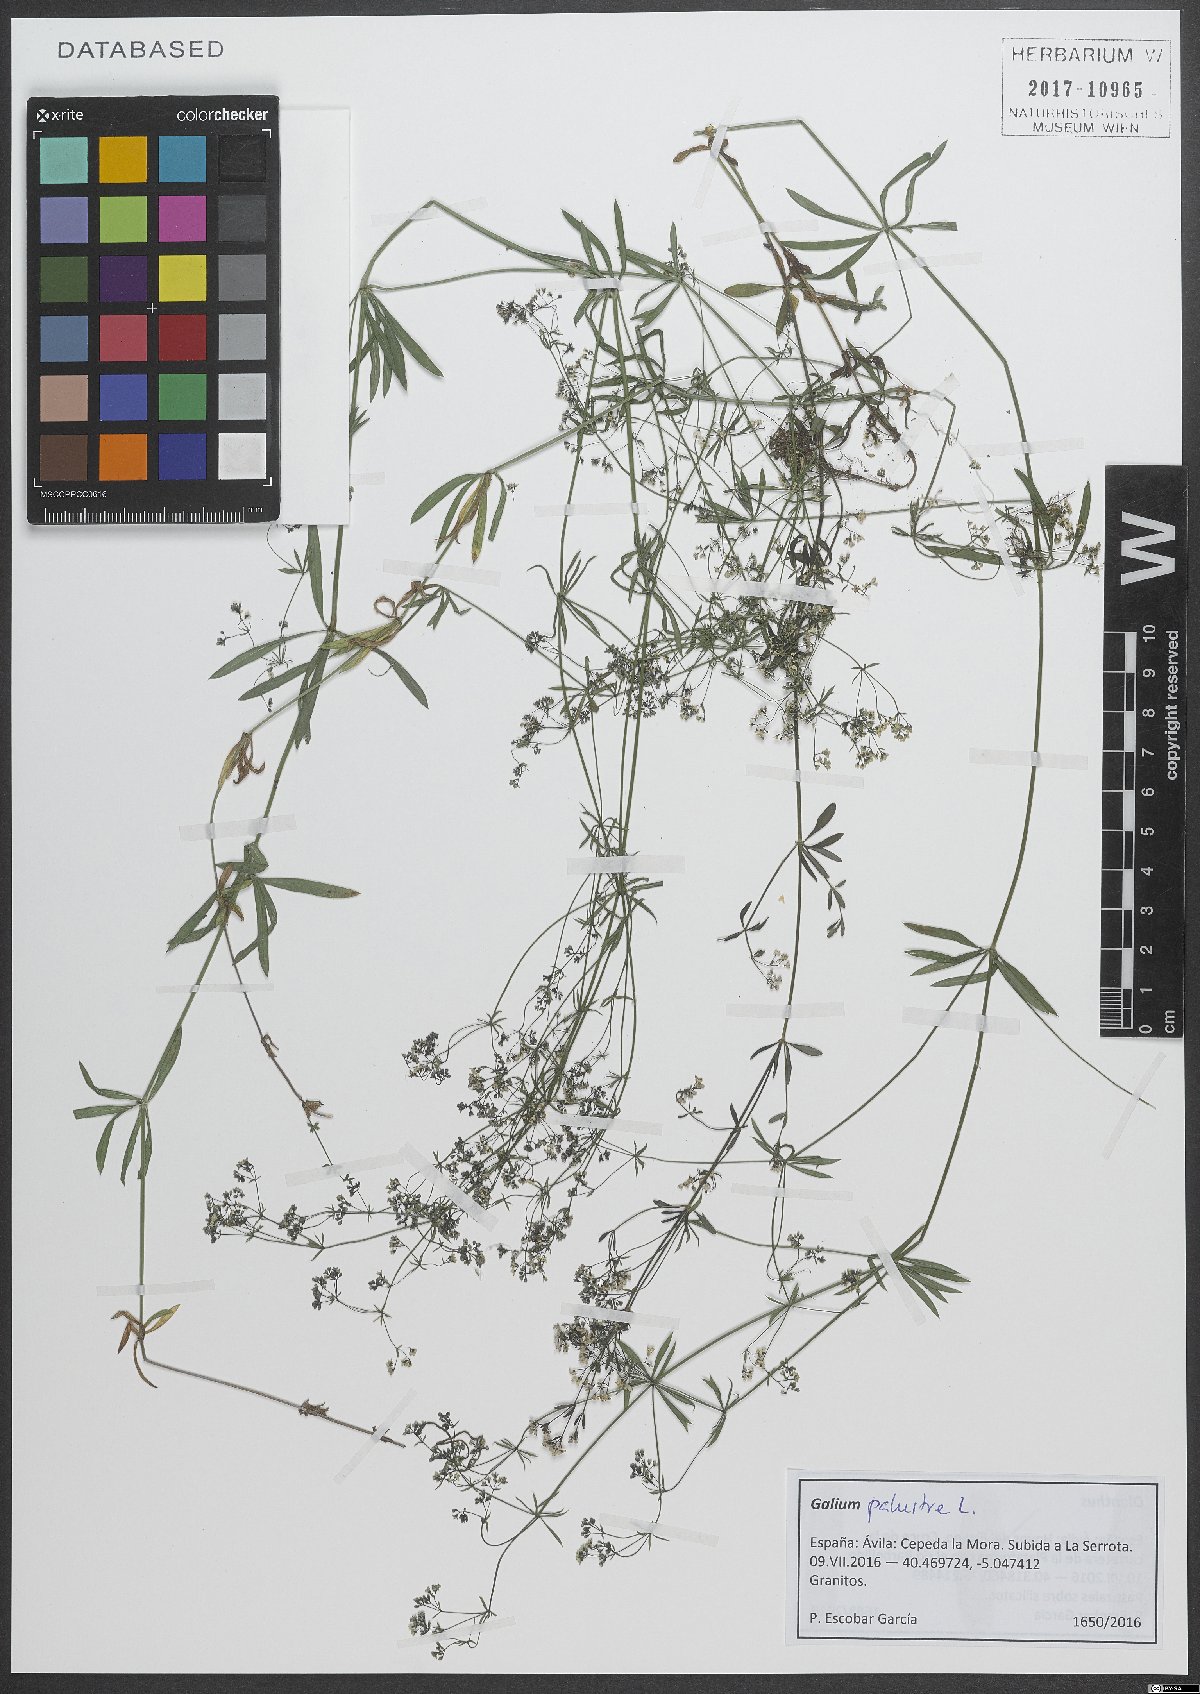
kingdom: Plantae
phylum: Tracheophyta
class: Magnoliopsida
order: Gentianales
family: Rubiaceae
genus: Galium
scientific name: Galium palustre
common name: Common marsh-bedstraw
